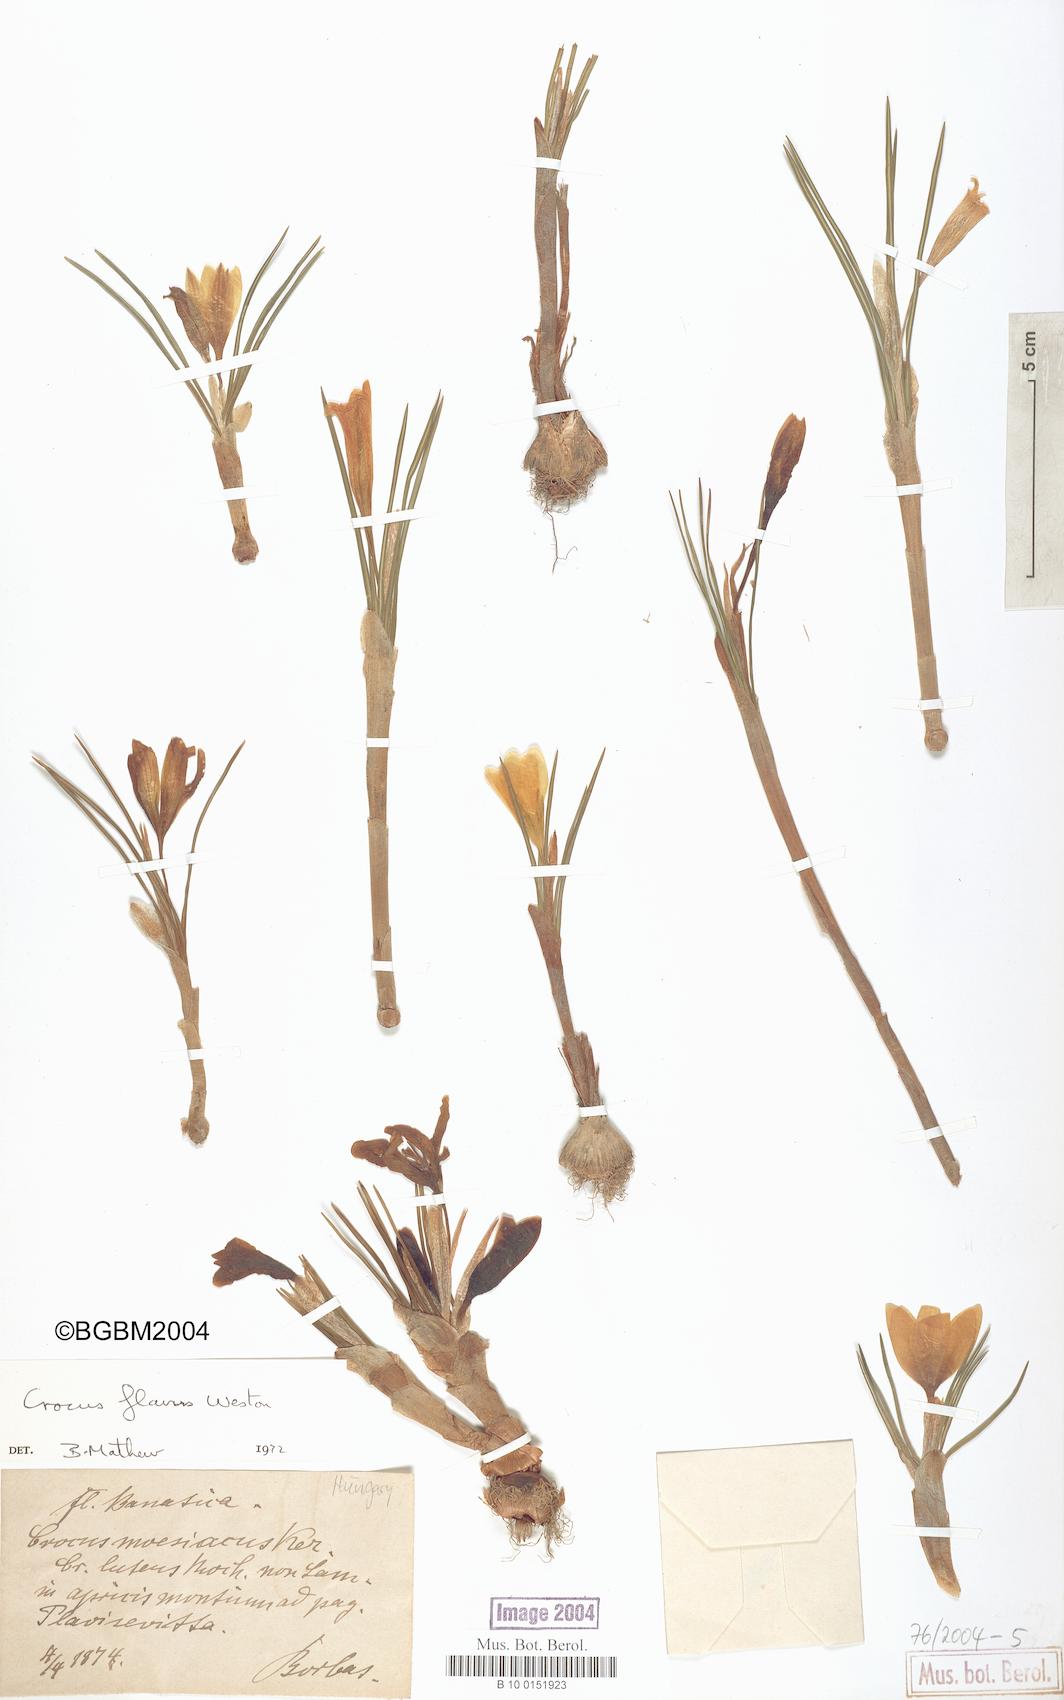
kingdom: Plantae
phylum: Tracheophyta
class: Liliopsida
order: Asparagales
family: Iridaceae
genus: Crocus
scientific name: Crocus flavus
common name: Yellow crocus
